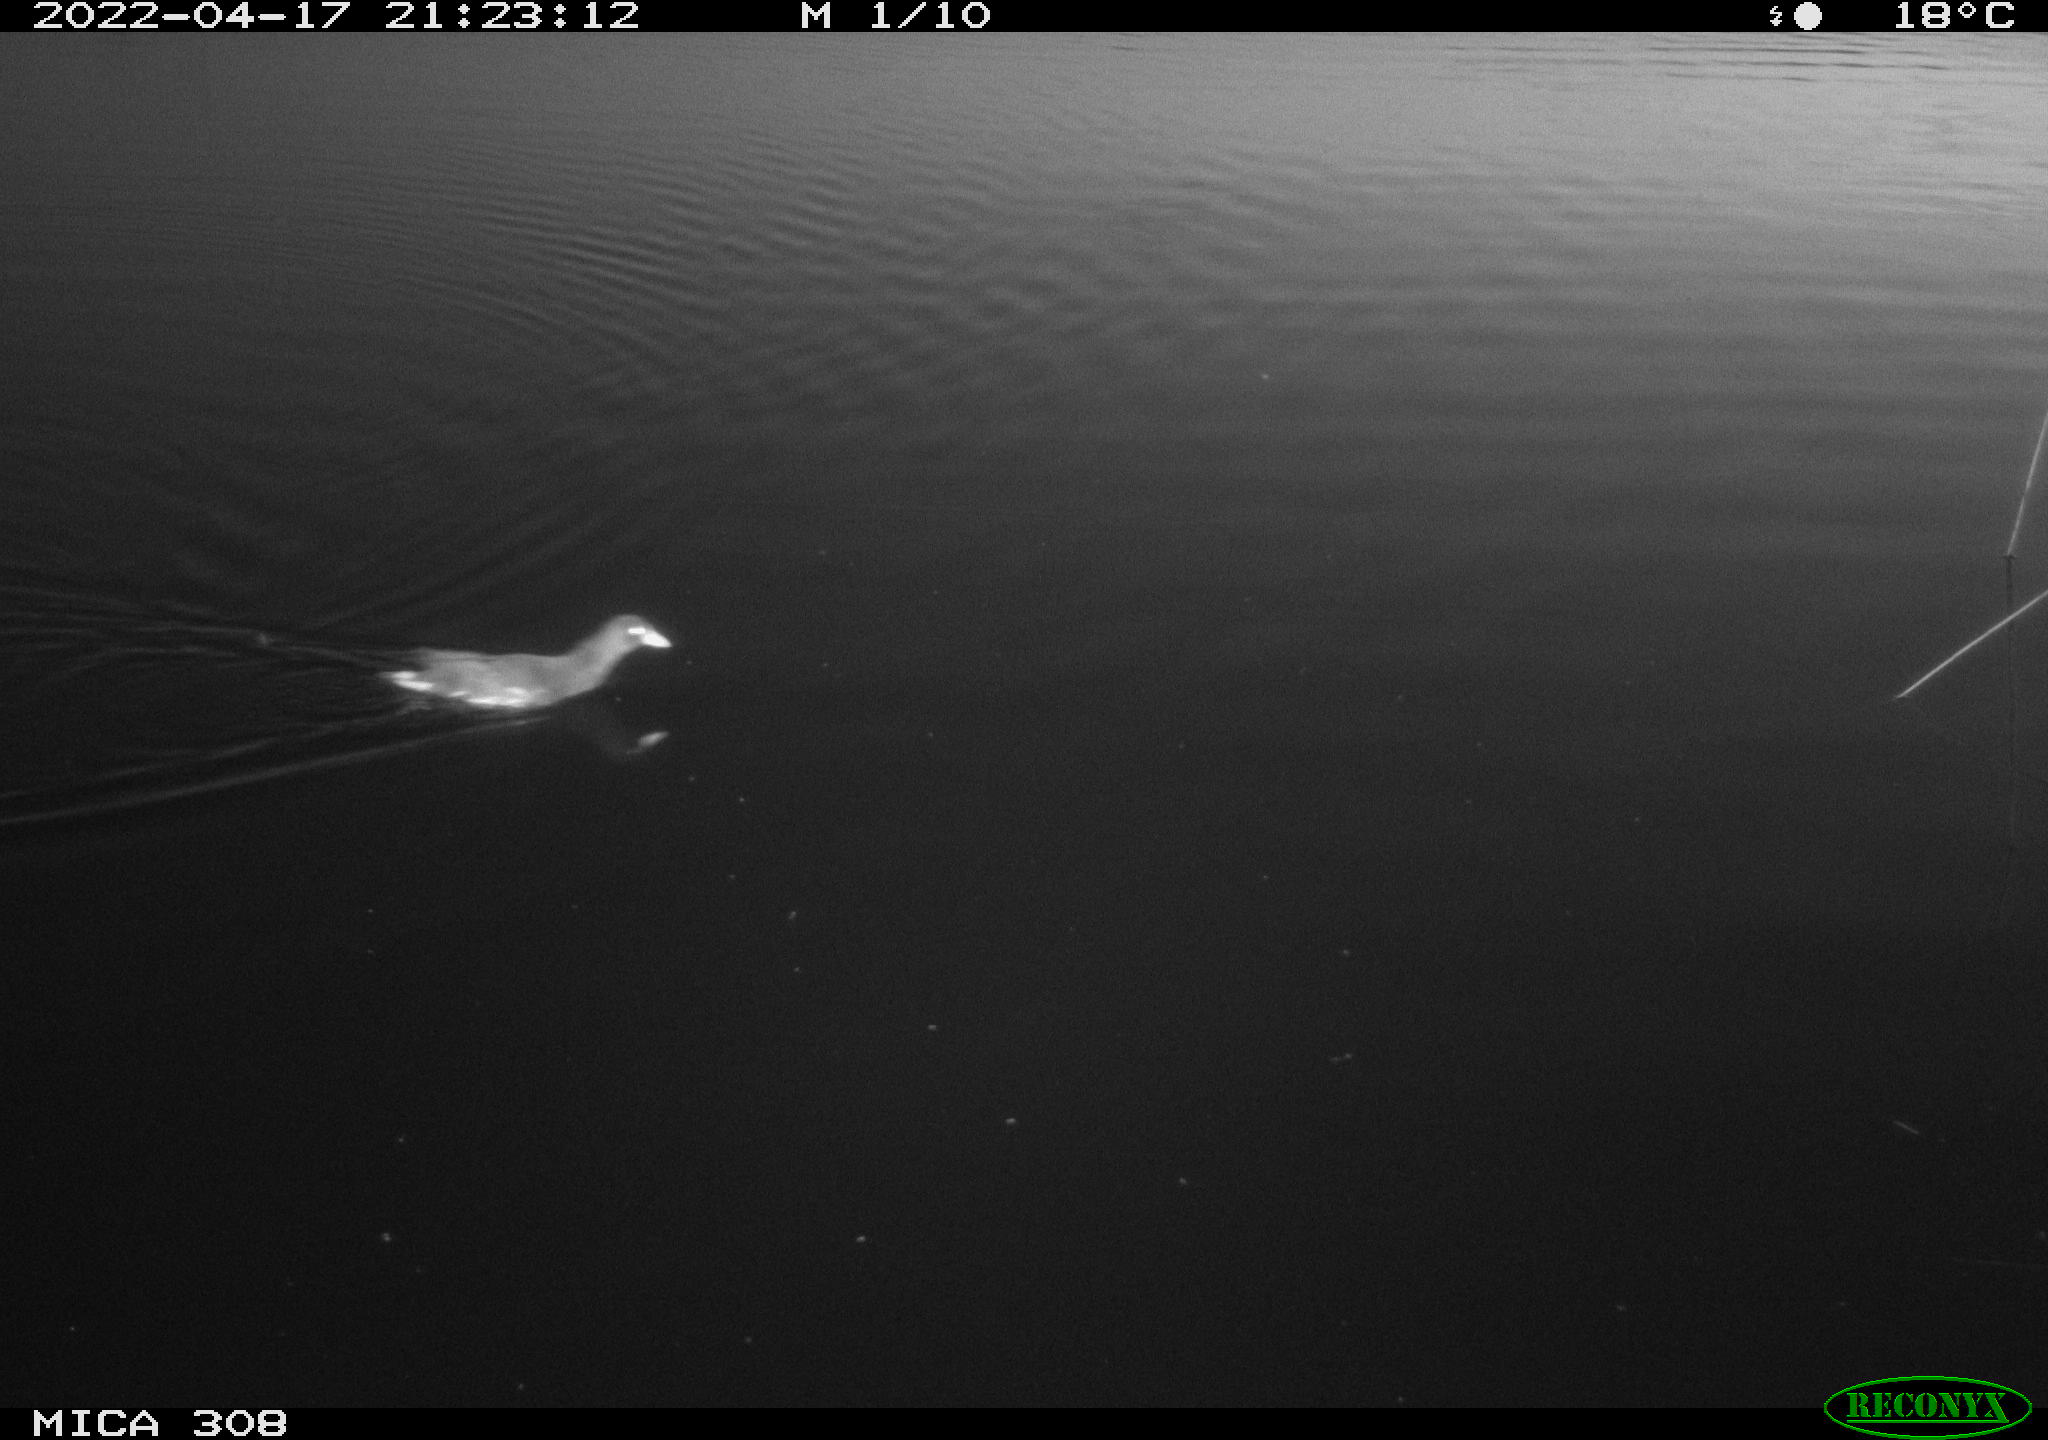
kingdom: Animalia
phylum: Chordata
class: Aves
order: Gruiformes
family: Rallidae
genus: Gallinula
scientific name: Gallinula chloropus
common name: Common moorhen
